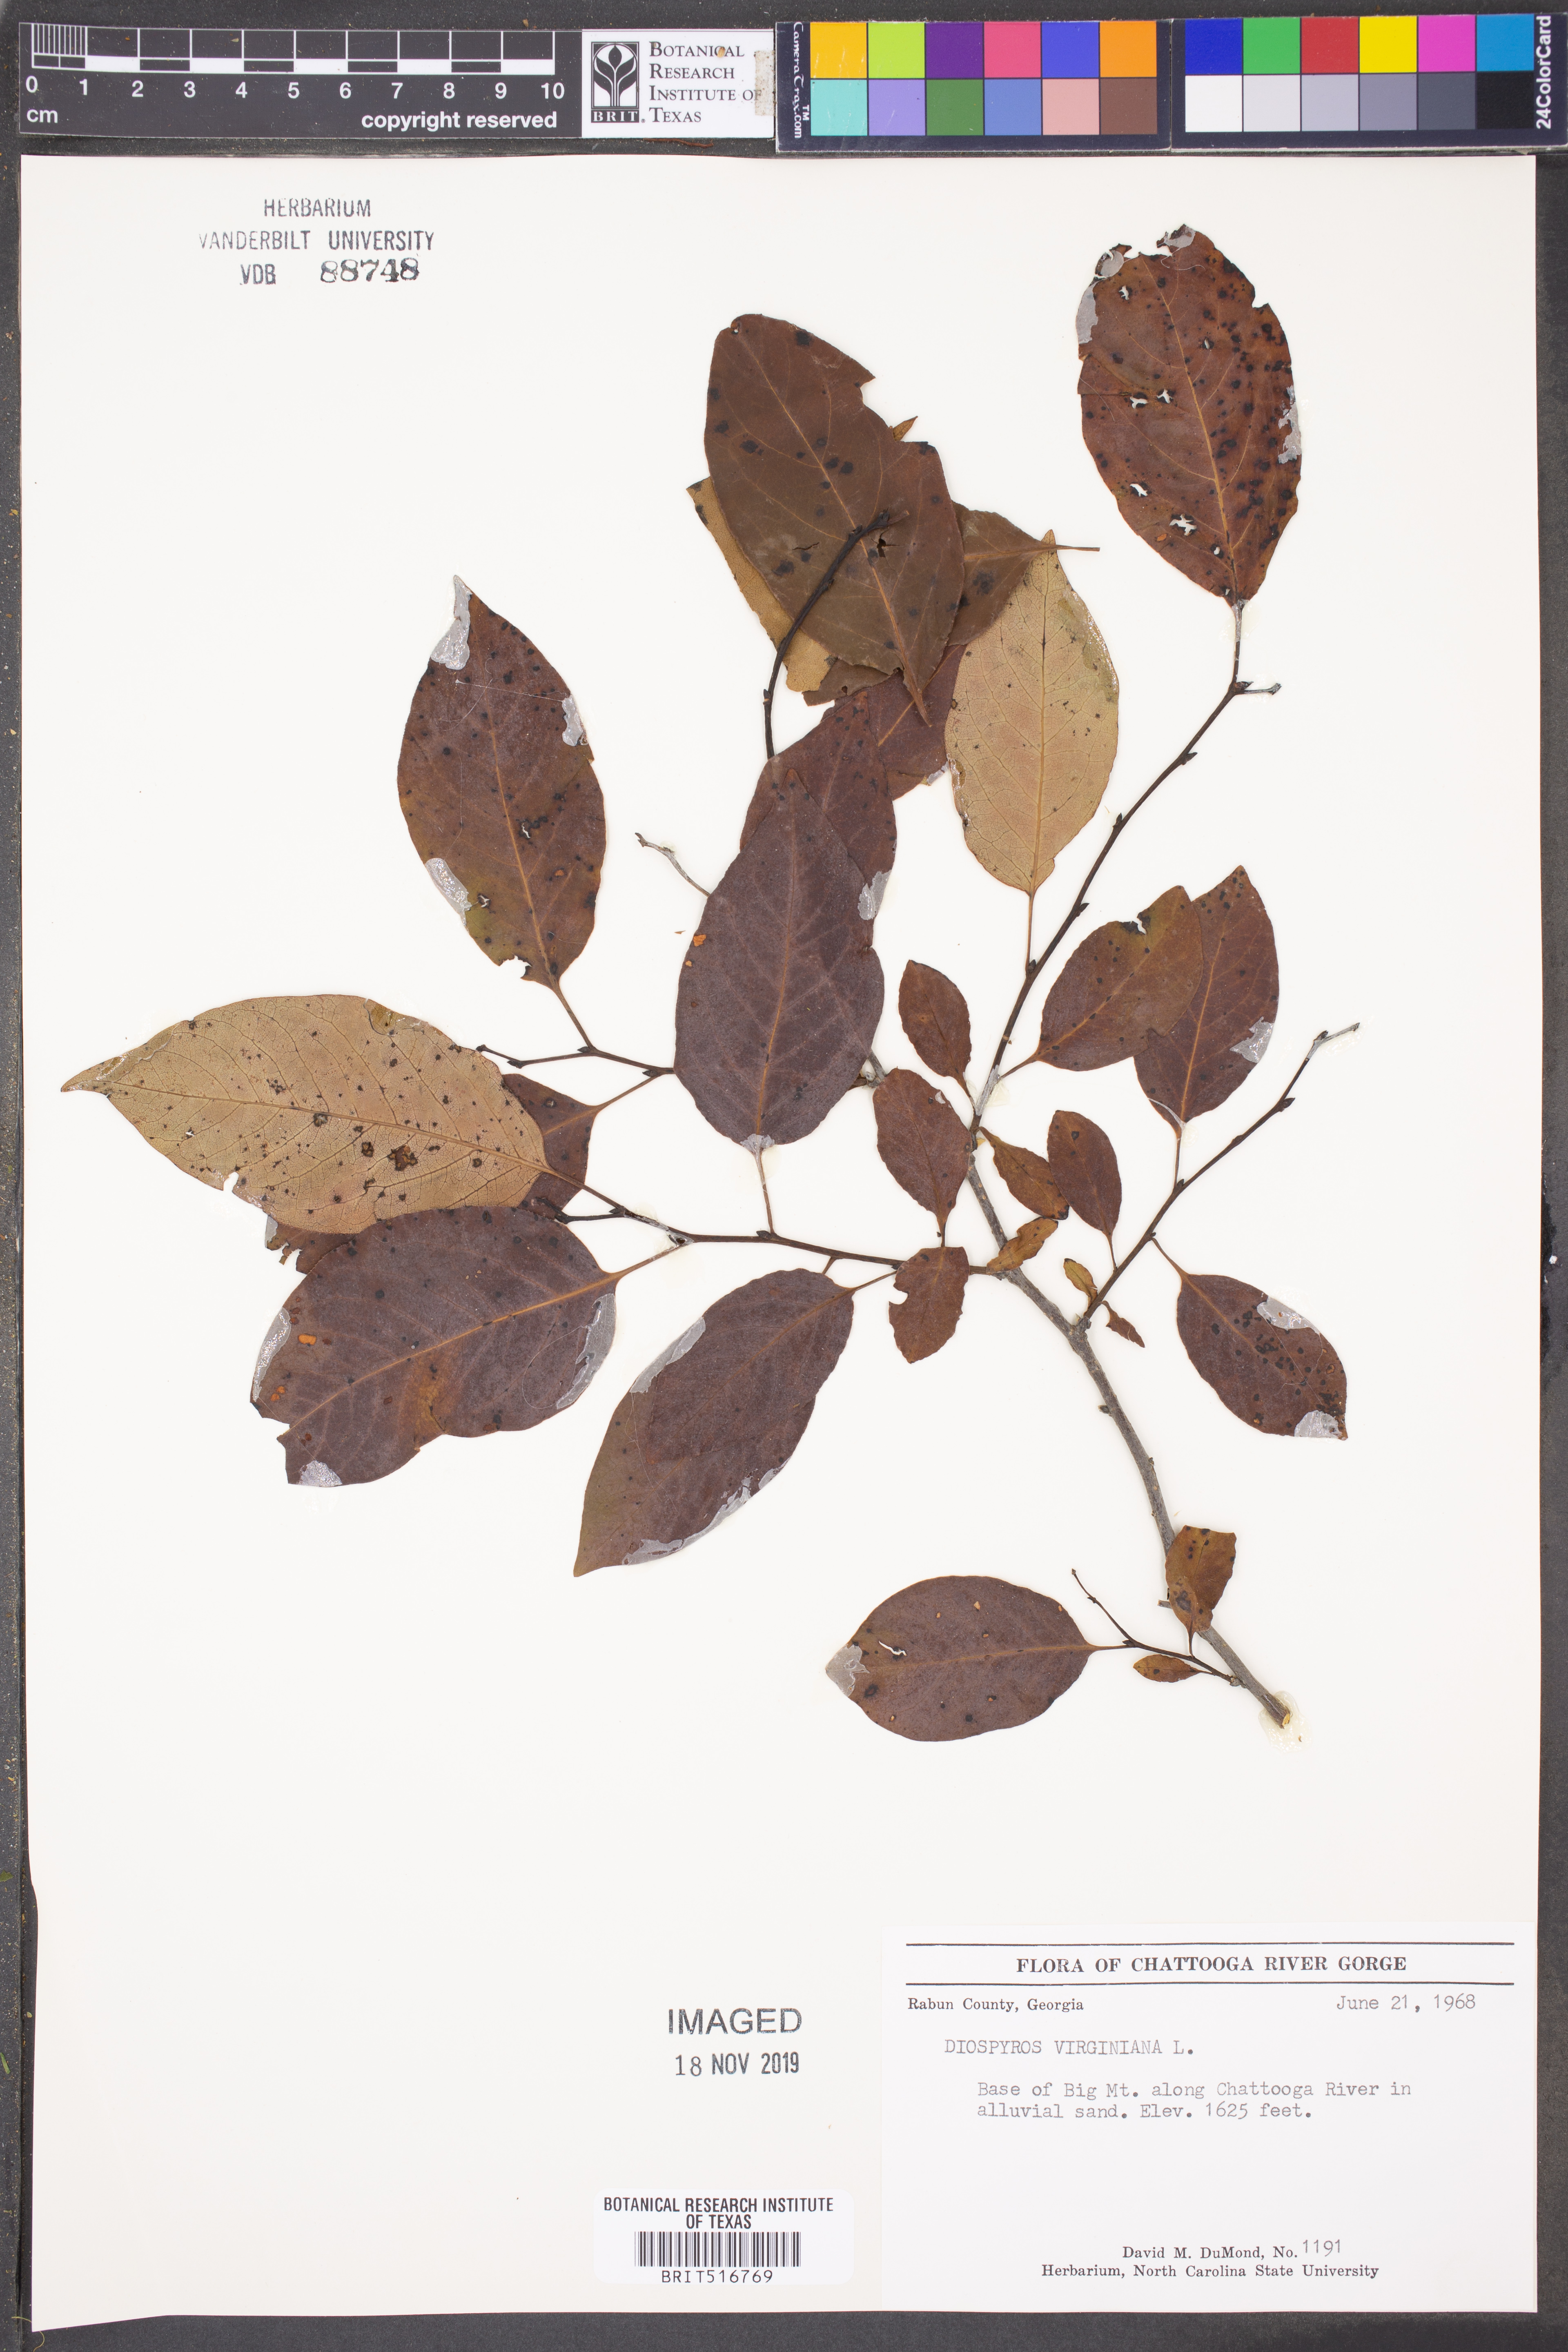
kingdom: Plantae
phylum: Tracheophyta
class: Magnoliopsida
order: Ericales
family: Ebenaceae
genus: Diospyros
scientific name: Diospyros virginiana
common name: Persimmon
